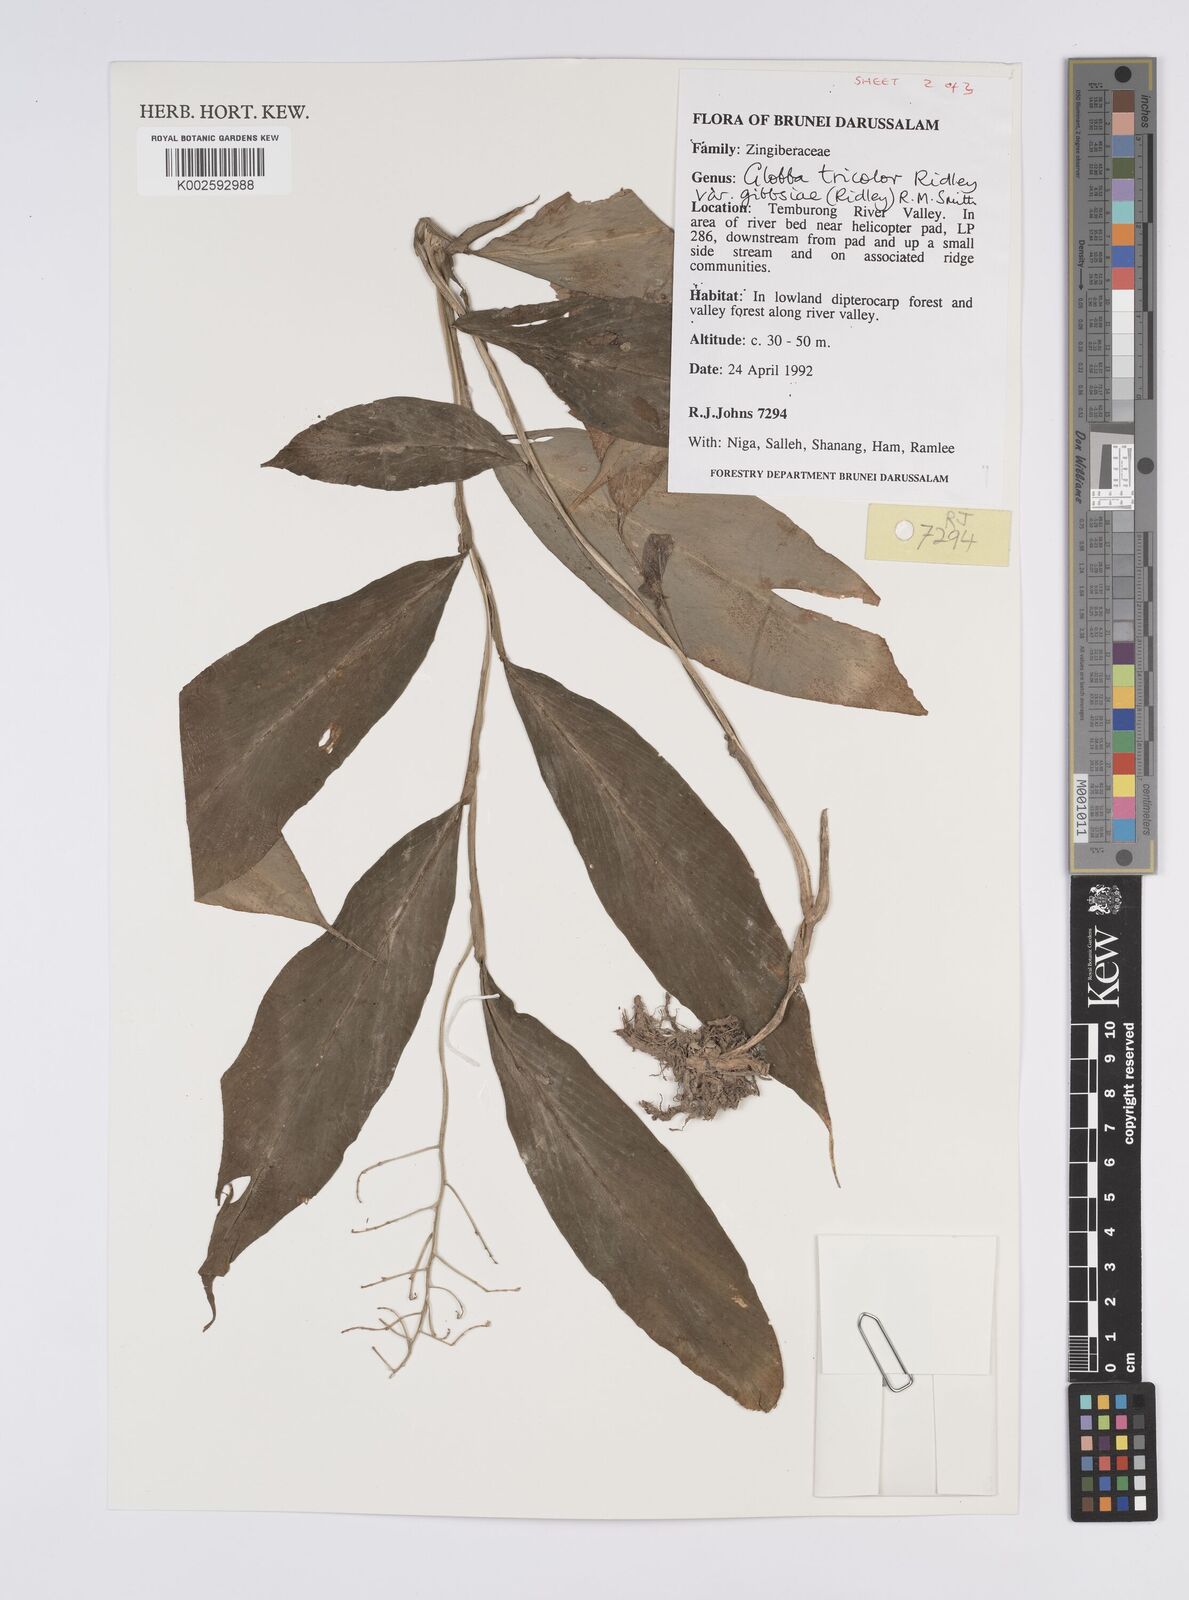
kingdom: Plantae
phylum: Tracheophyta
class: Liliopsida
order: Zingiberales
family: Zingiberaceae
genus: Globba
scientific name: Globba tricolor
